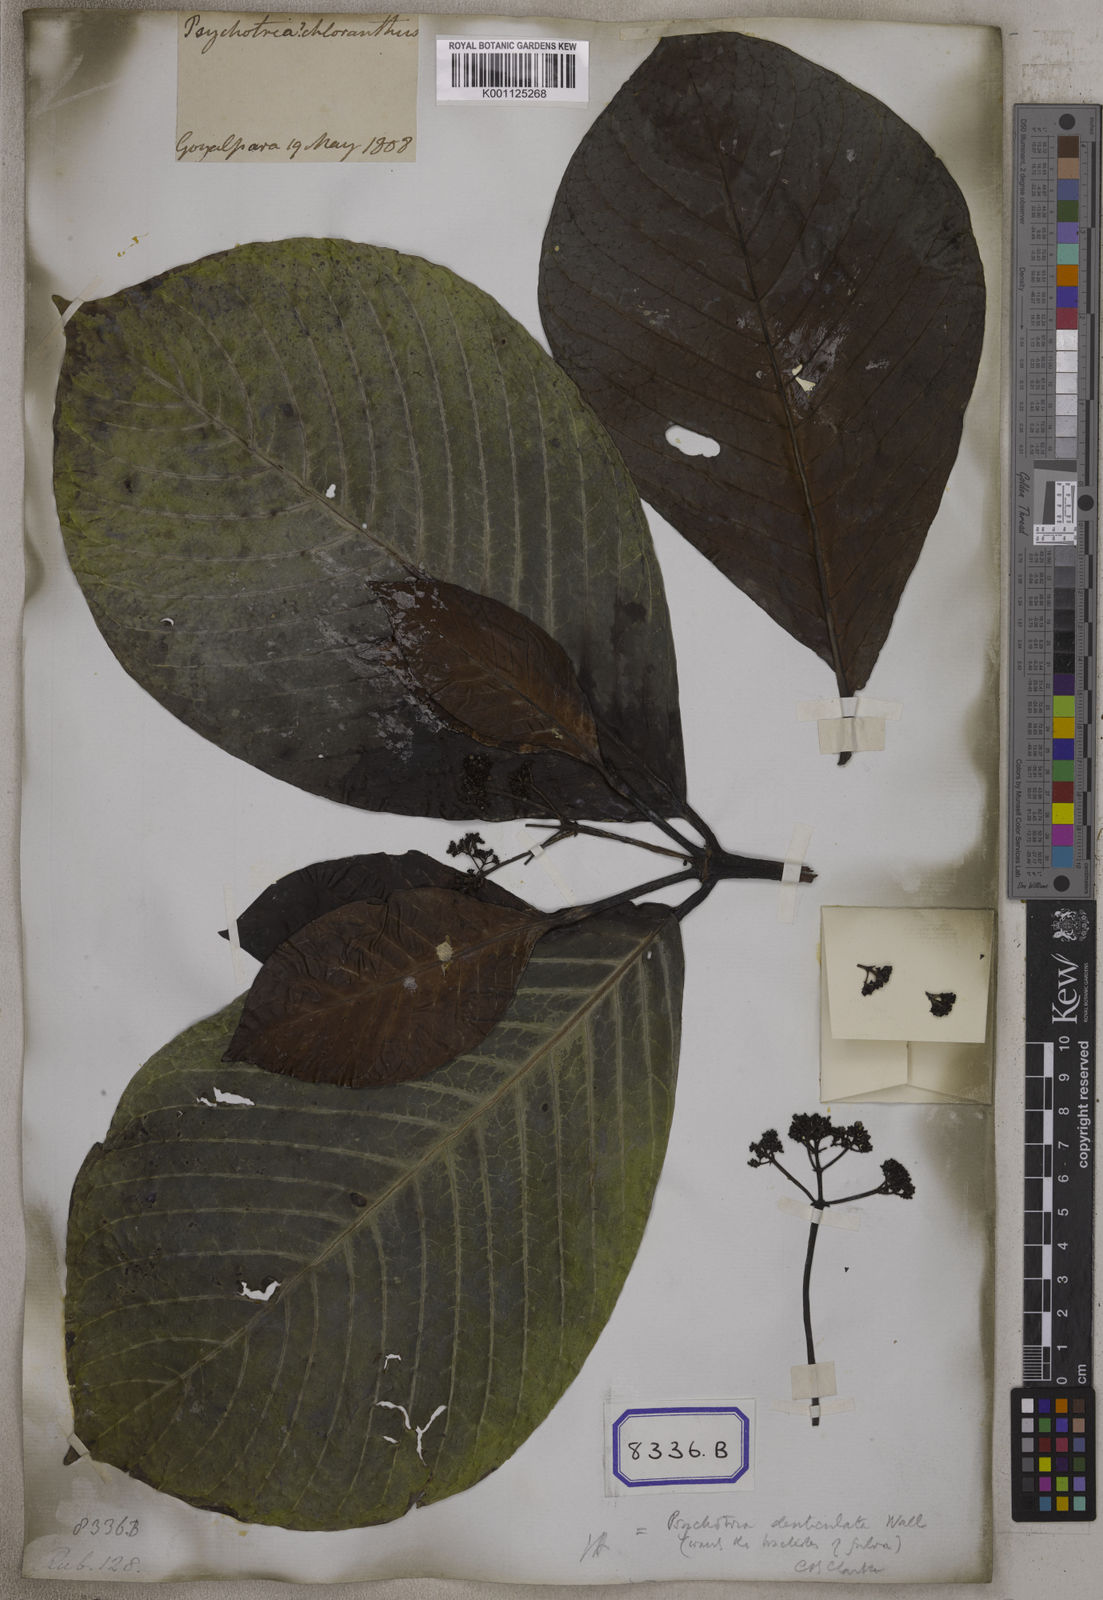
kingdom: Plantae
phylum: Tracheophyta
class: Magnoliopsida
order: Gentianales
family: Rubiaceae
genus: Psychotria
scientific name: Psychotria
